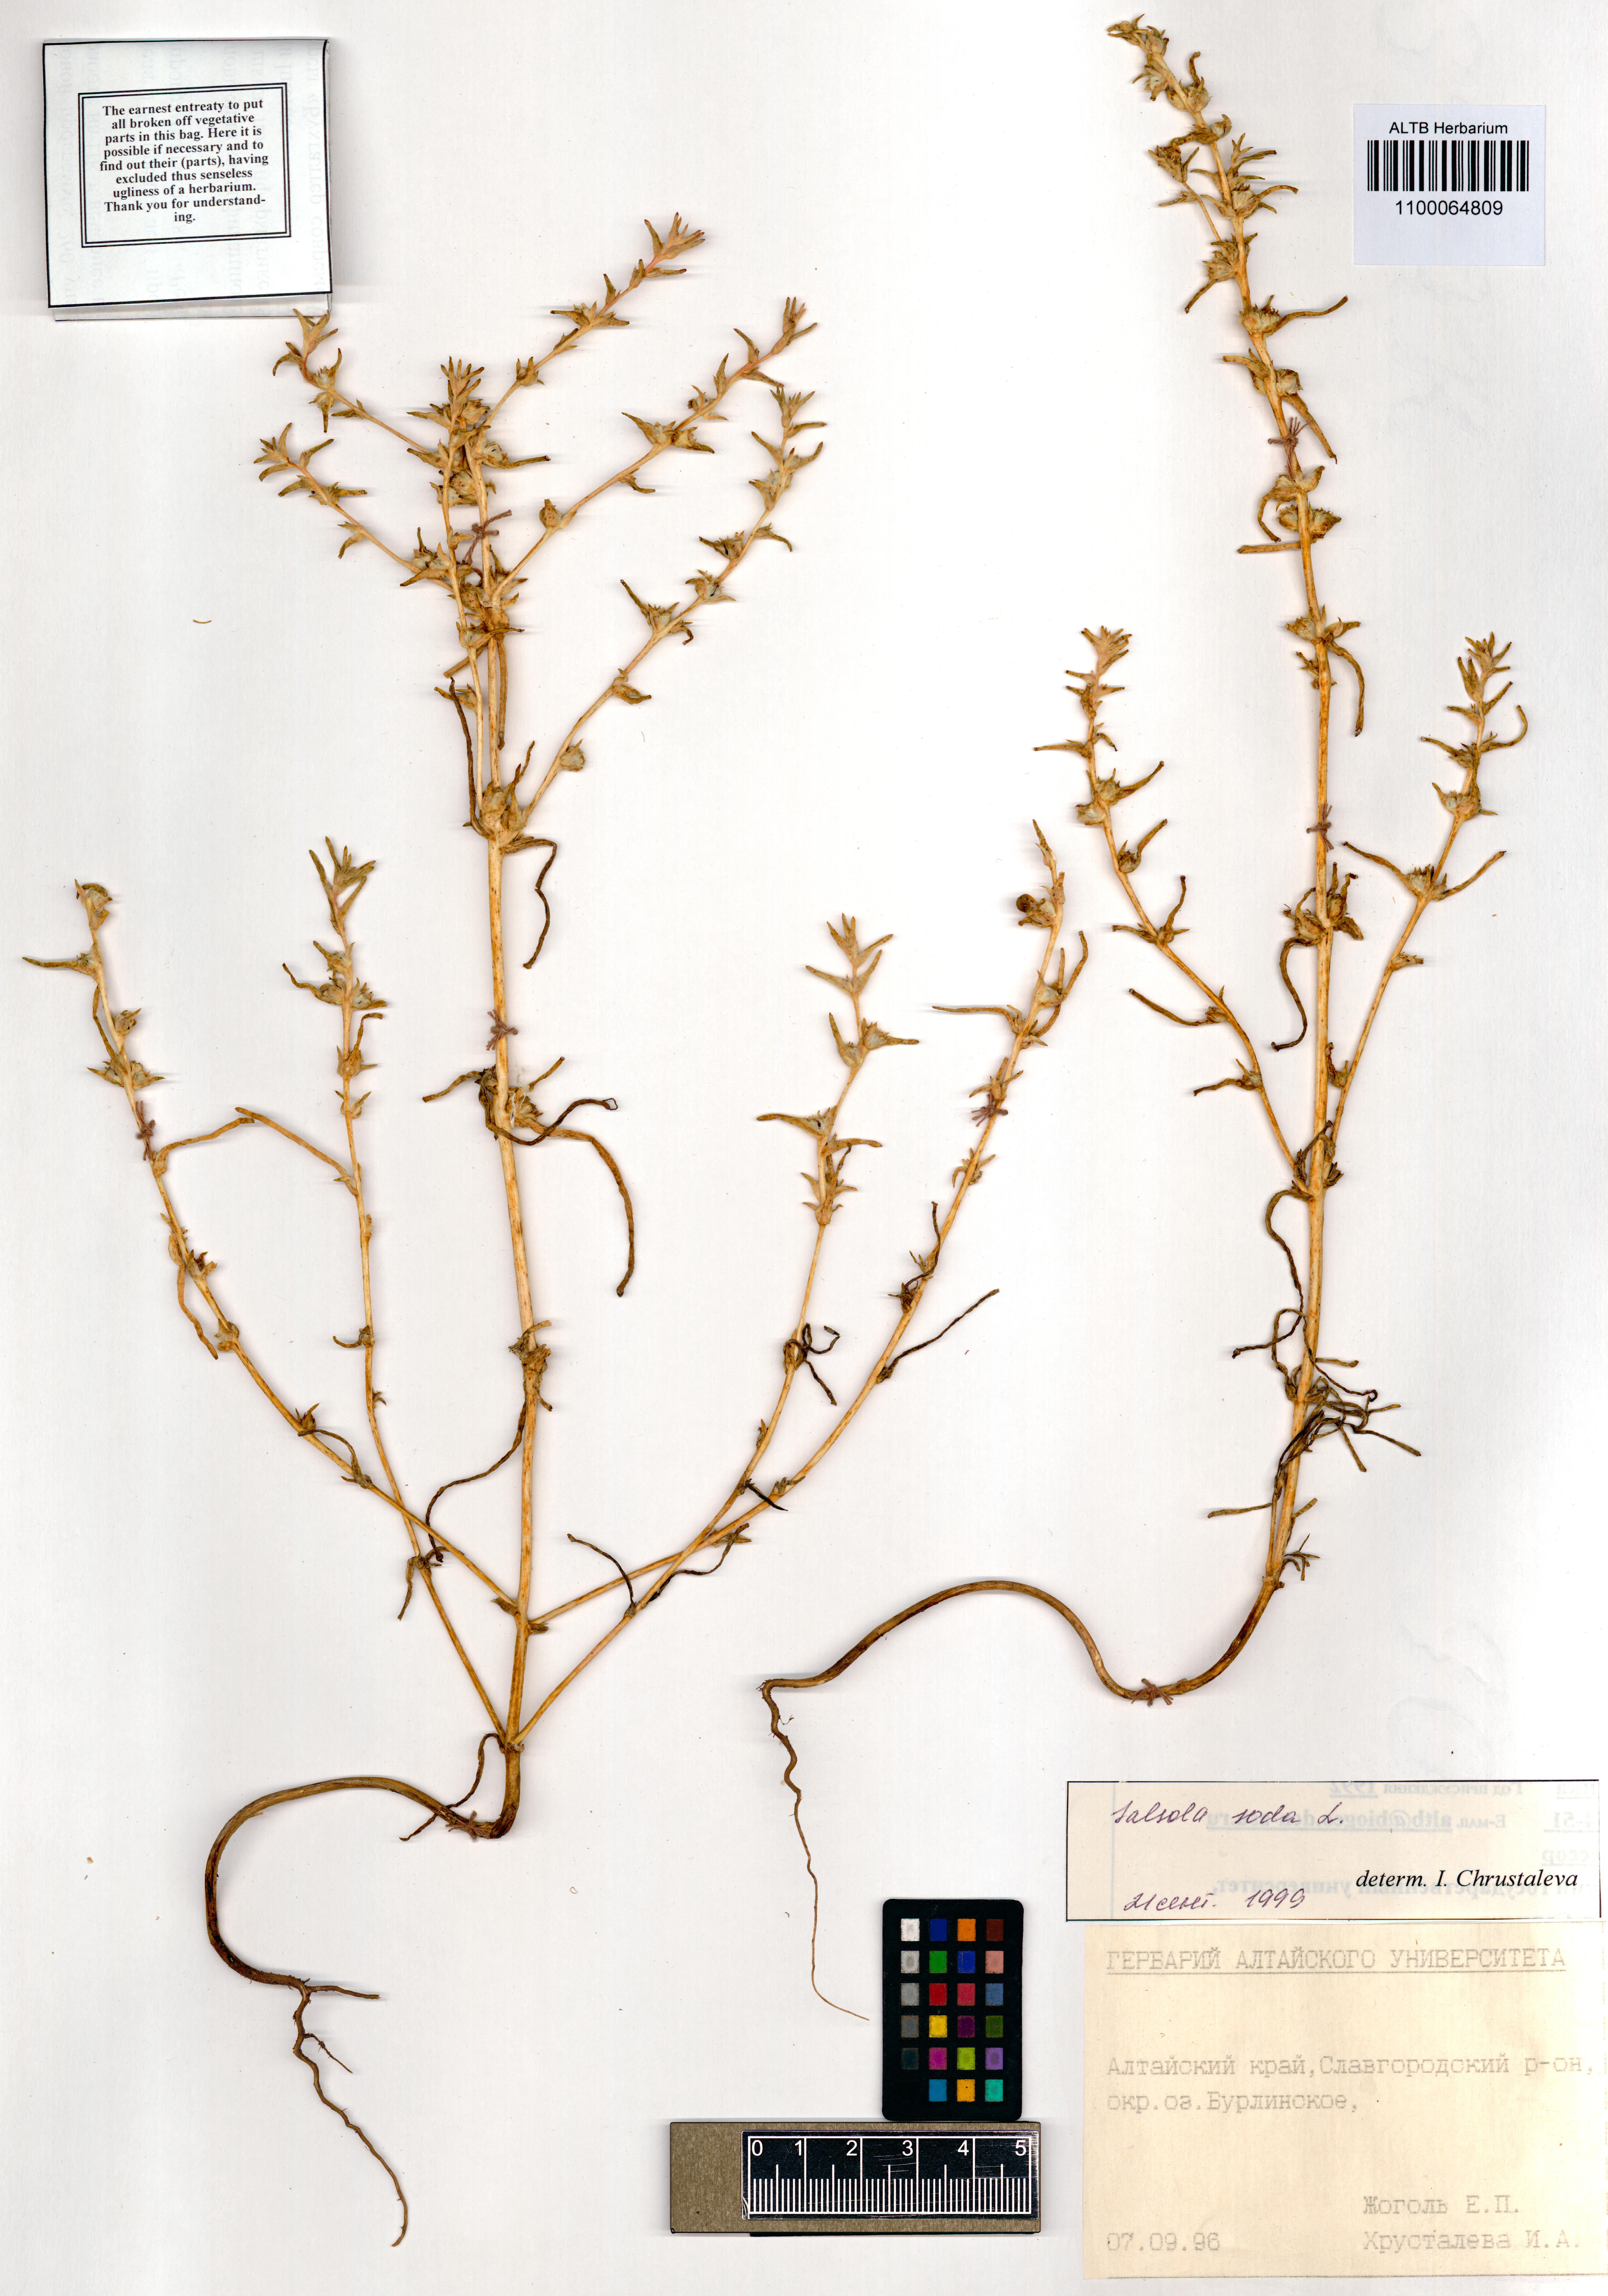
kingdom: Plantae
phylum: Tracheophyta
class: Magnoliopsida
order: Caryophyllales
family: Amaranthaceae
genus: Soda
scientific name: Soda inermis
